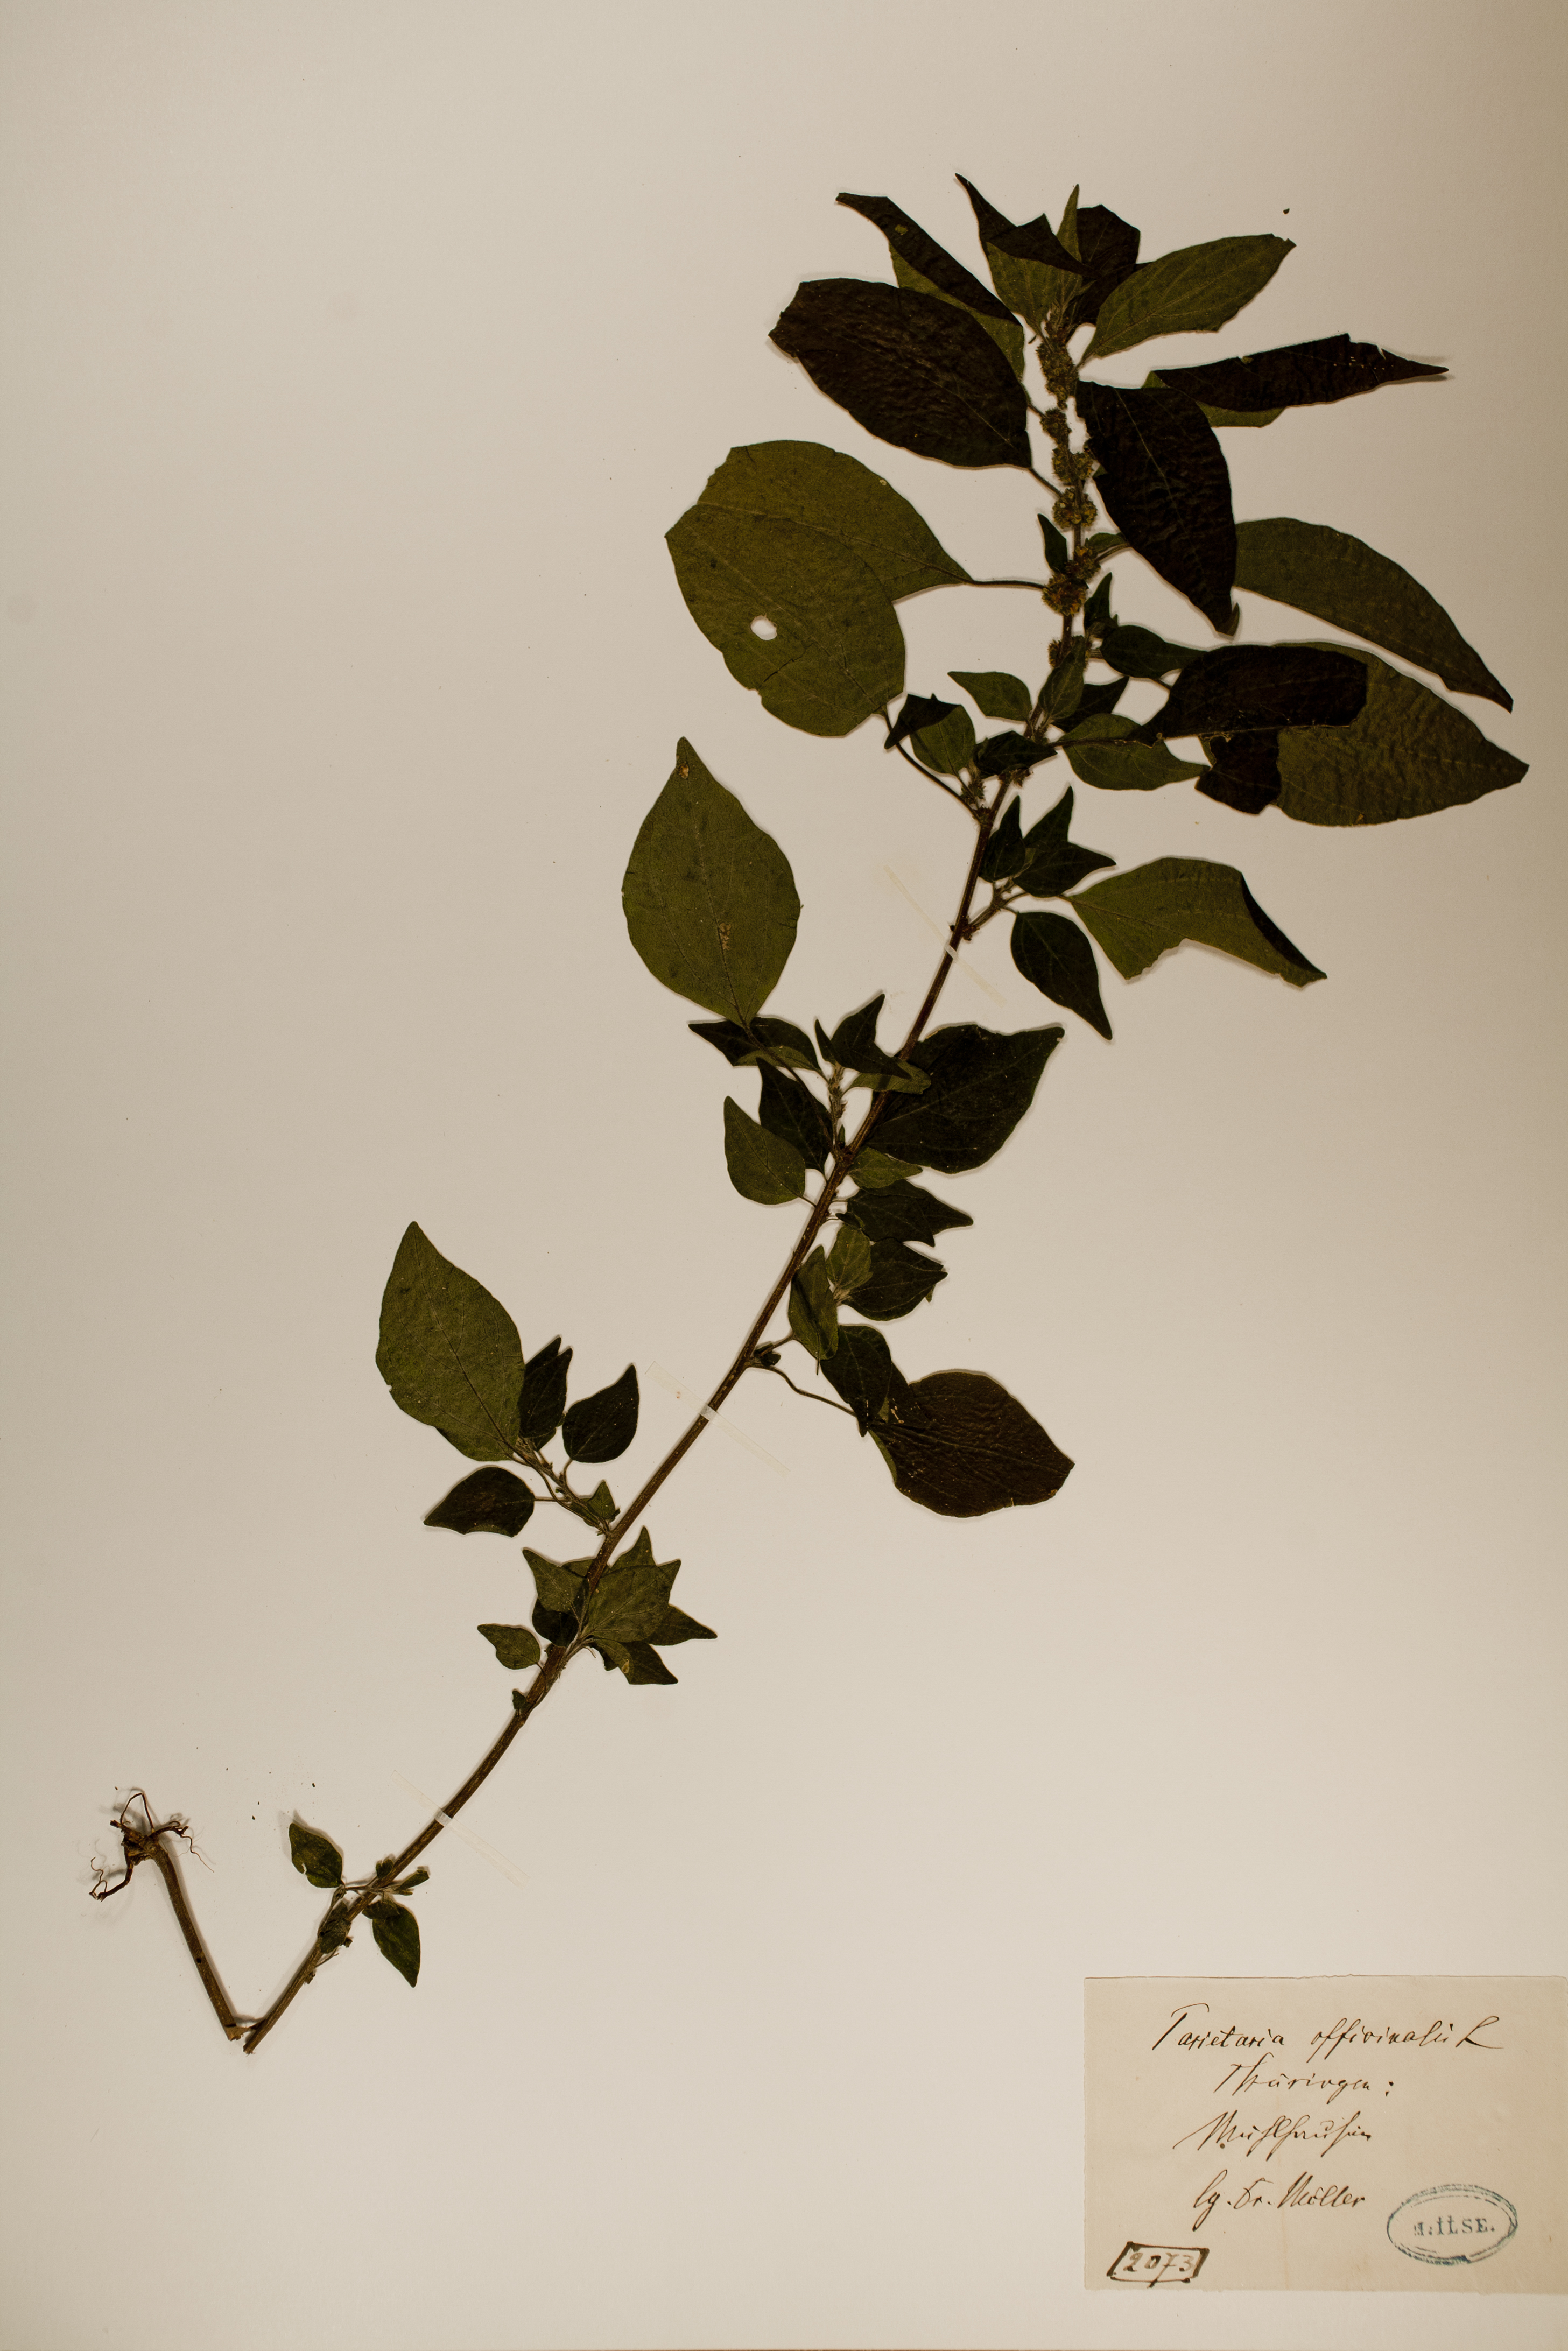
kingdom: Plantae
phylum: Tracheophyta
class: Magnoliopsida
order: Rosales
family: Urticaceae
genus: Parietaria
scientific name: Parietaria officinalis
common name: Eastern pellitory-of-the-wall
